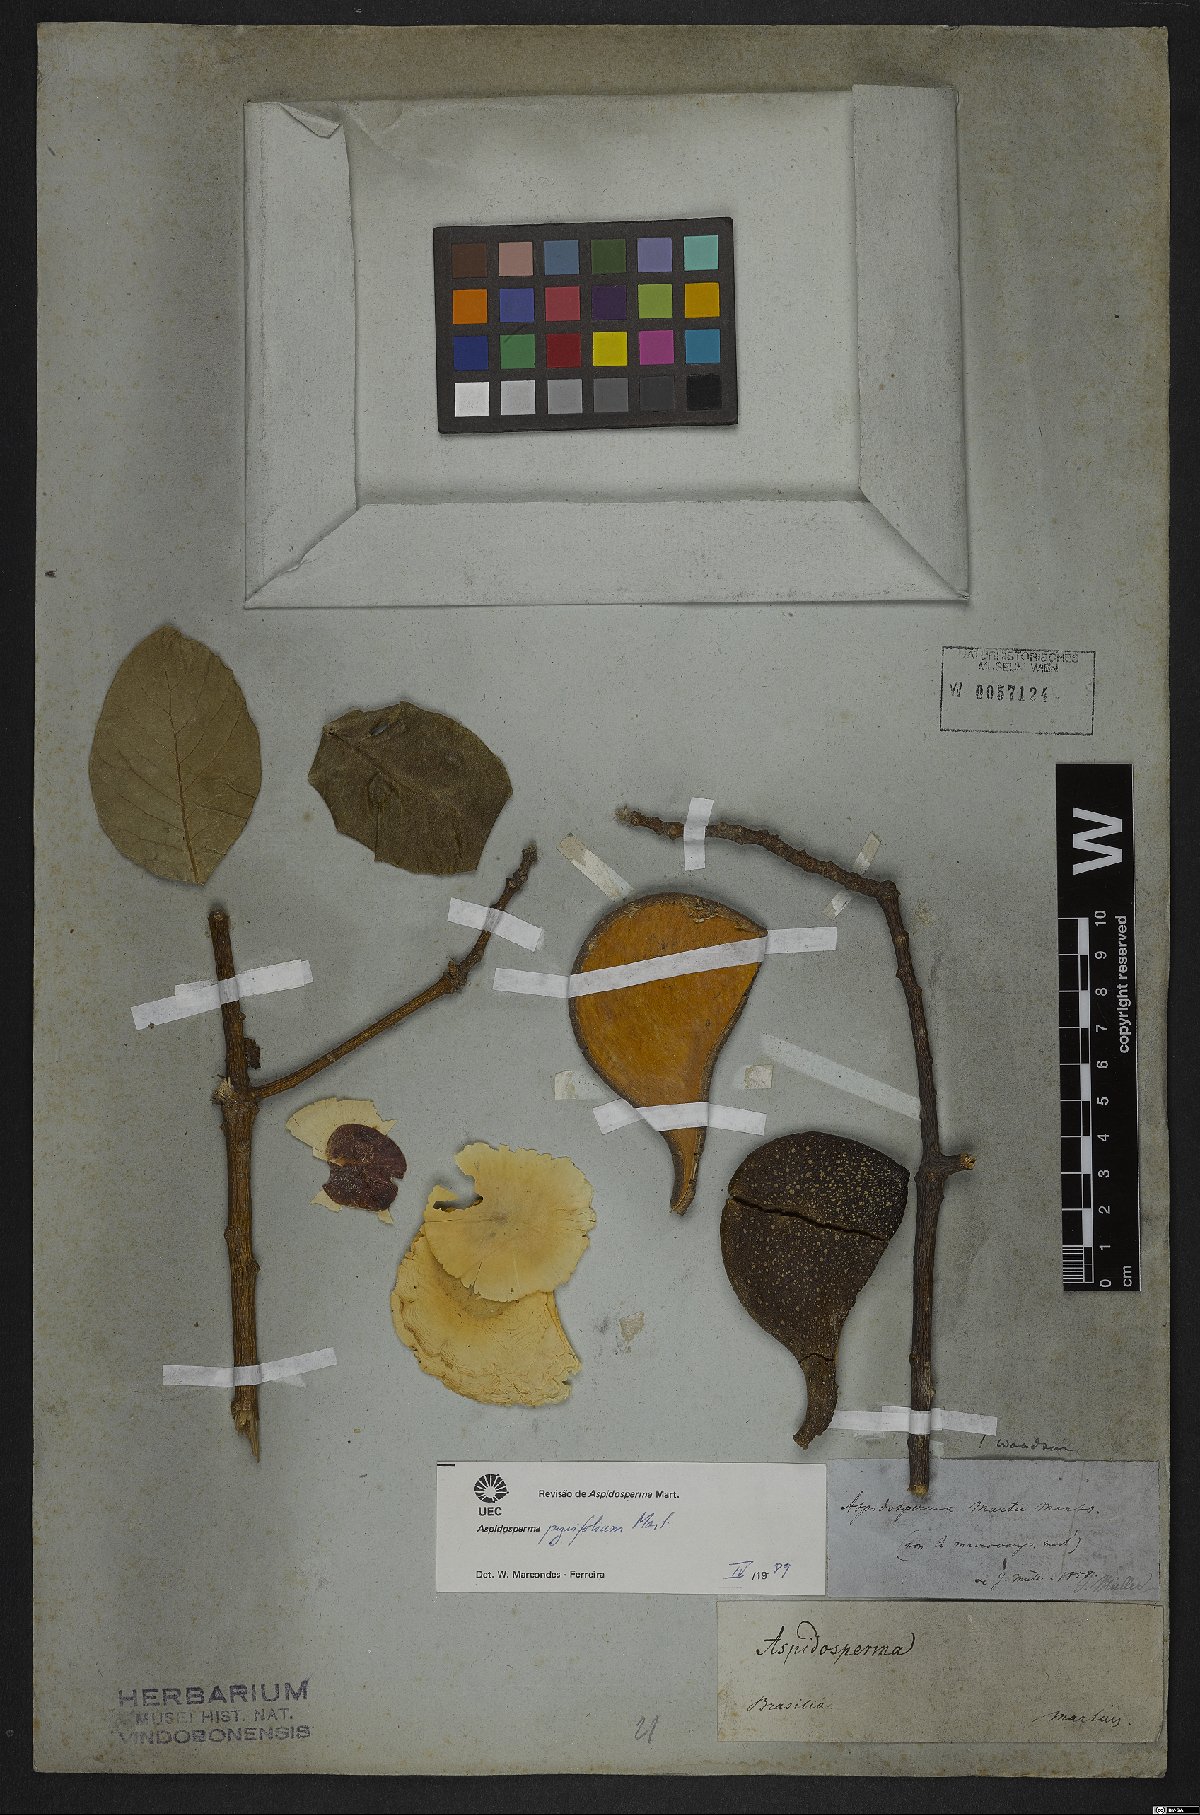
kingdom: Plantae
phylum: Tracheophyta
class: Magnoliopsida
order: Gentianales
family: Apocynaceae
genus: Aspidosperma
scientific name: Aspidosperma pyrifolium
